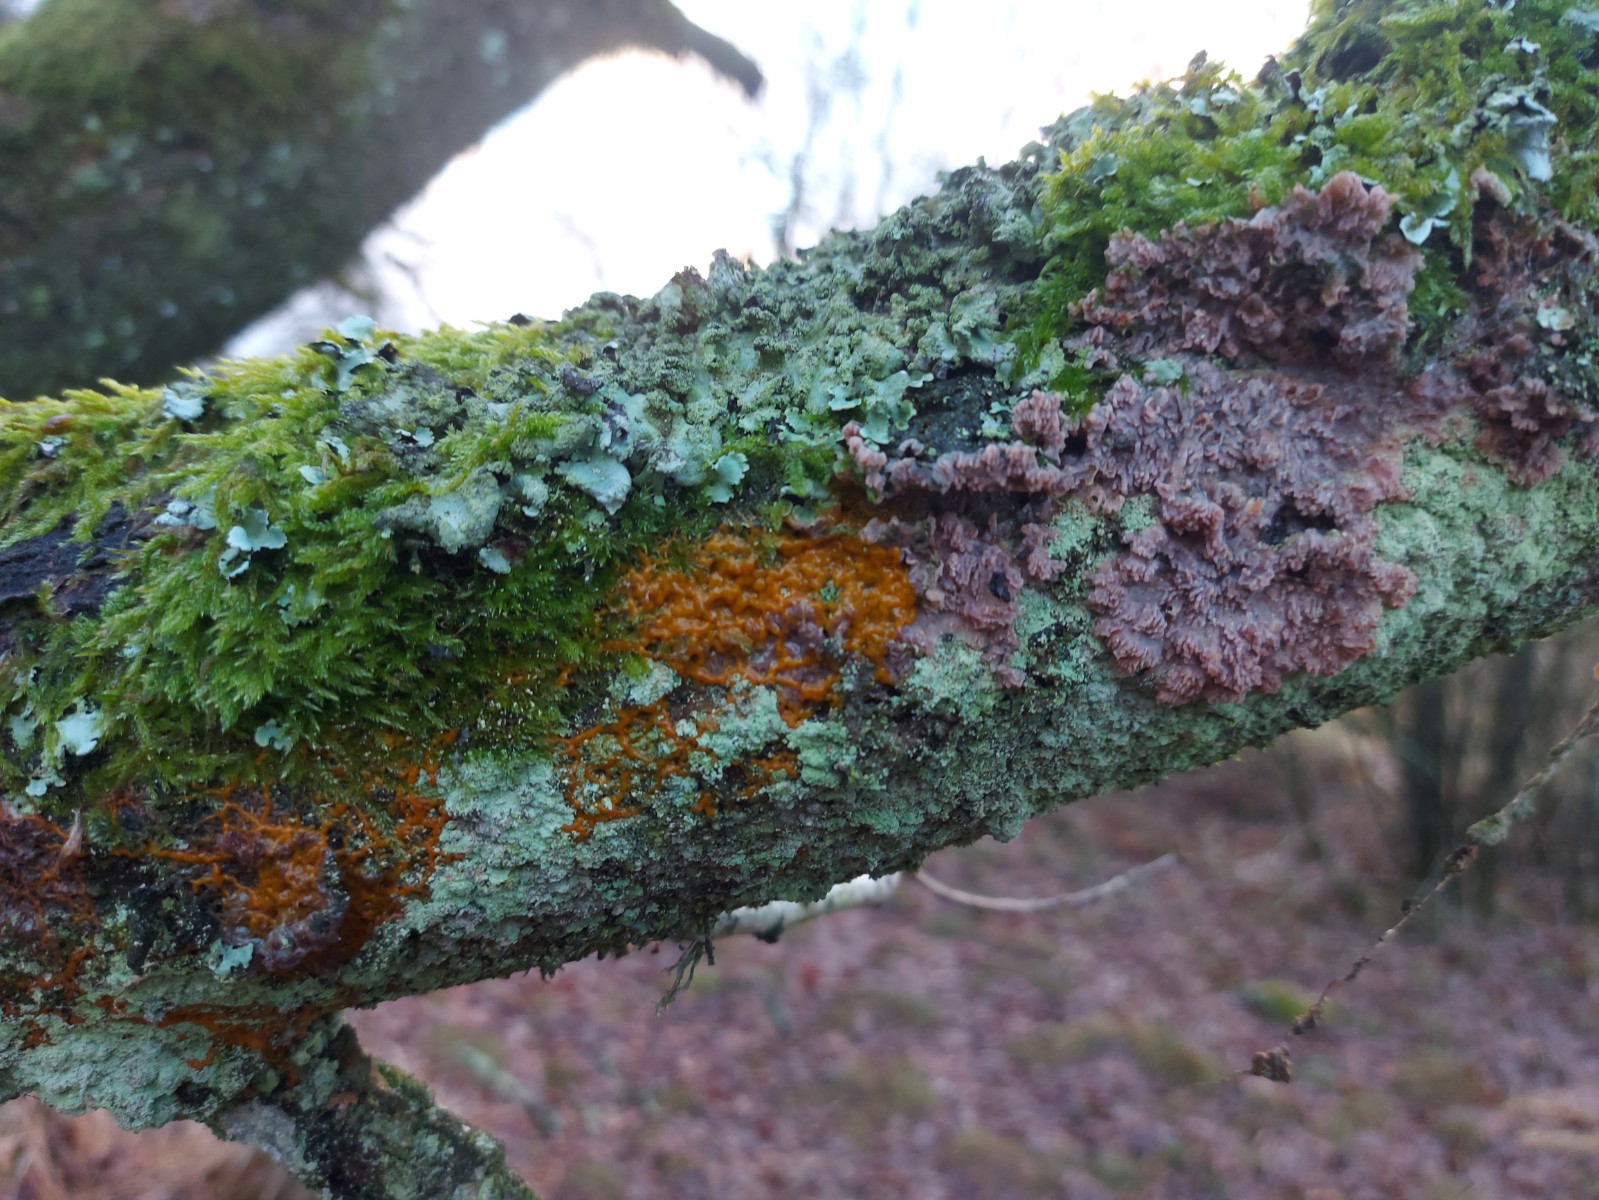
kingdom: Protozoa
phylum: Mycetozoa
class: Myxomycetes
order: Physarales
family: Physaraceae
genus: Badhamia
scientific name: Badhamia utricularis
